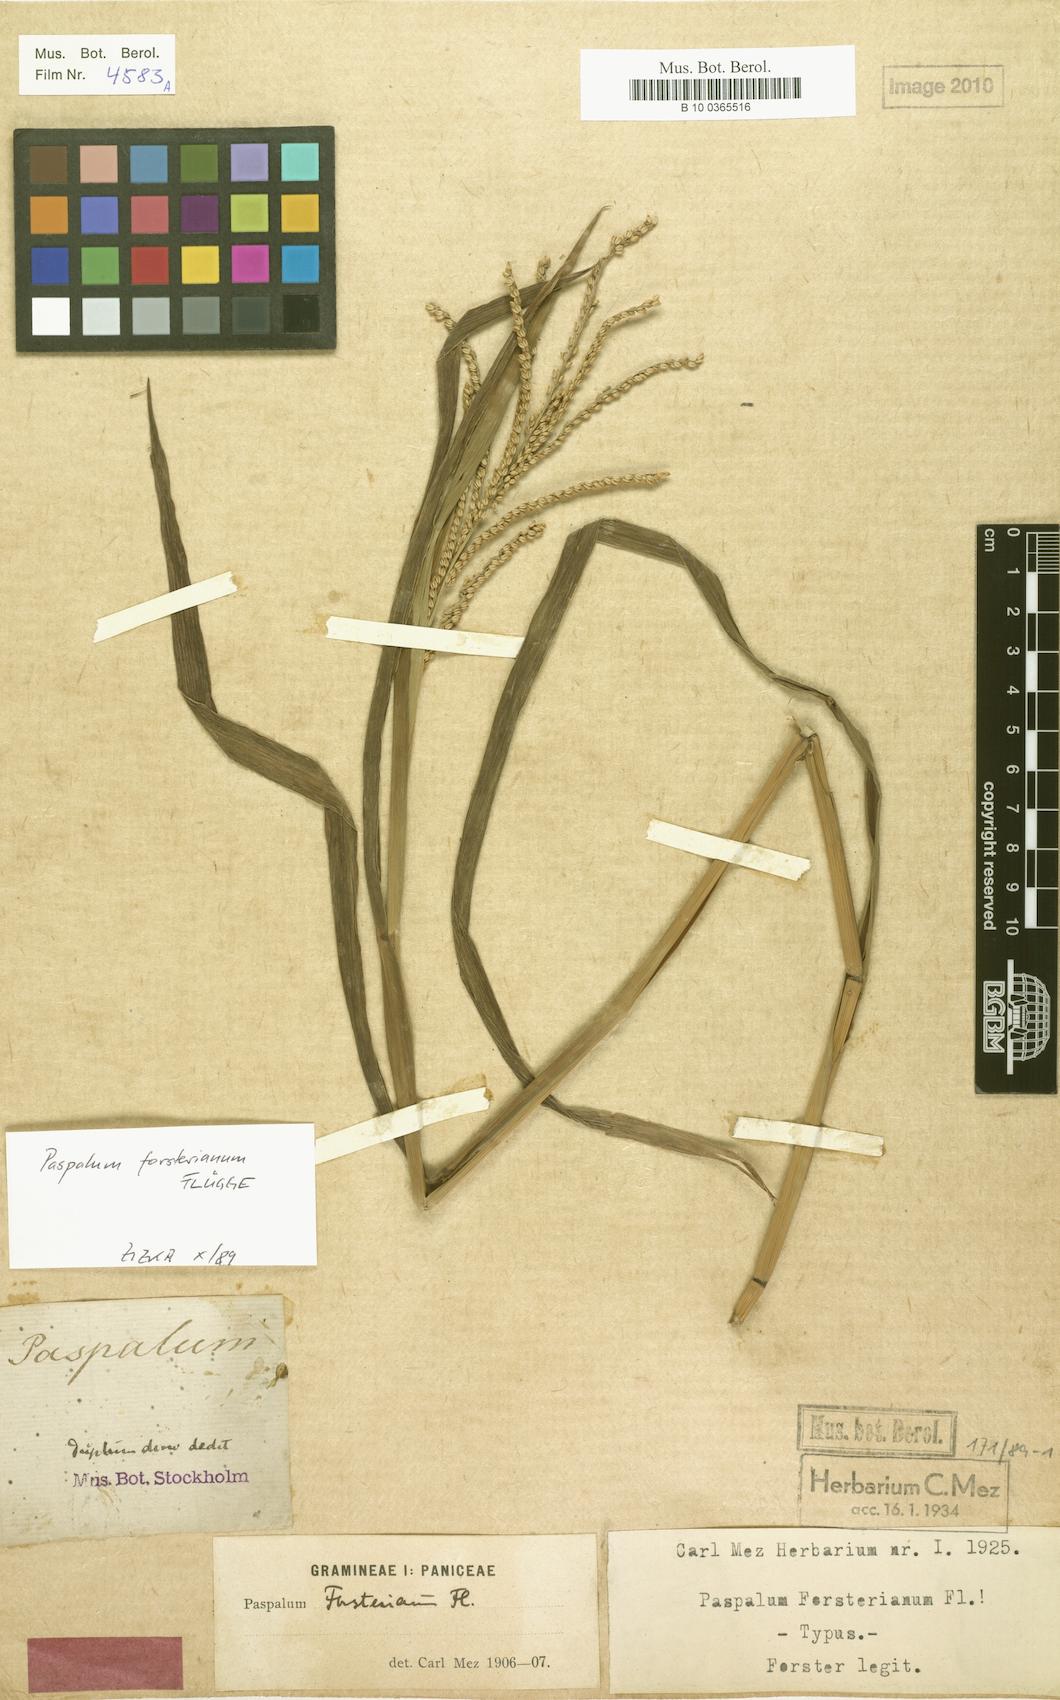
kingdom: Plantae
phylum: Tracheophyta
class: Liliopsida
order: Poales
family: Poaceae
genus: Paspalum
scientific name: Paspalum forsterianum
